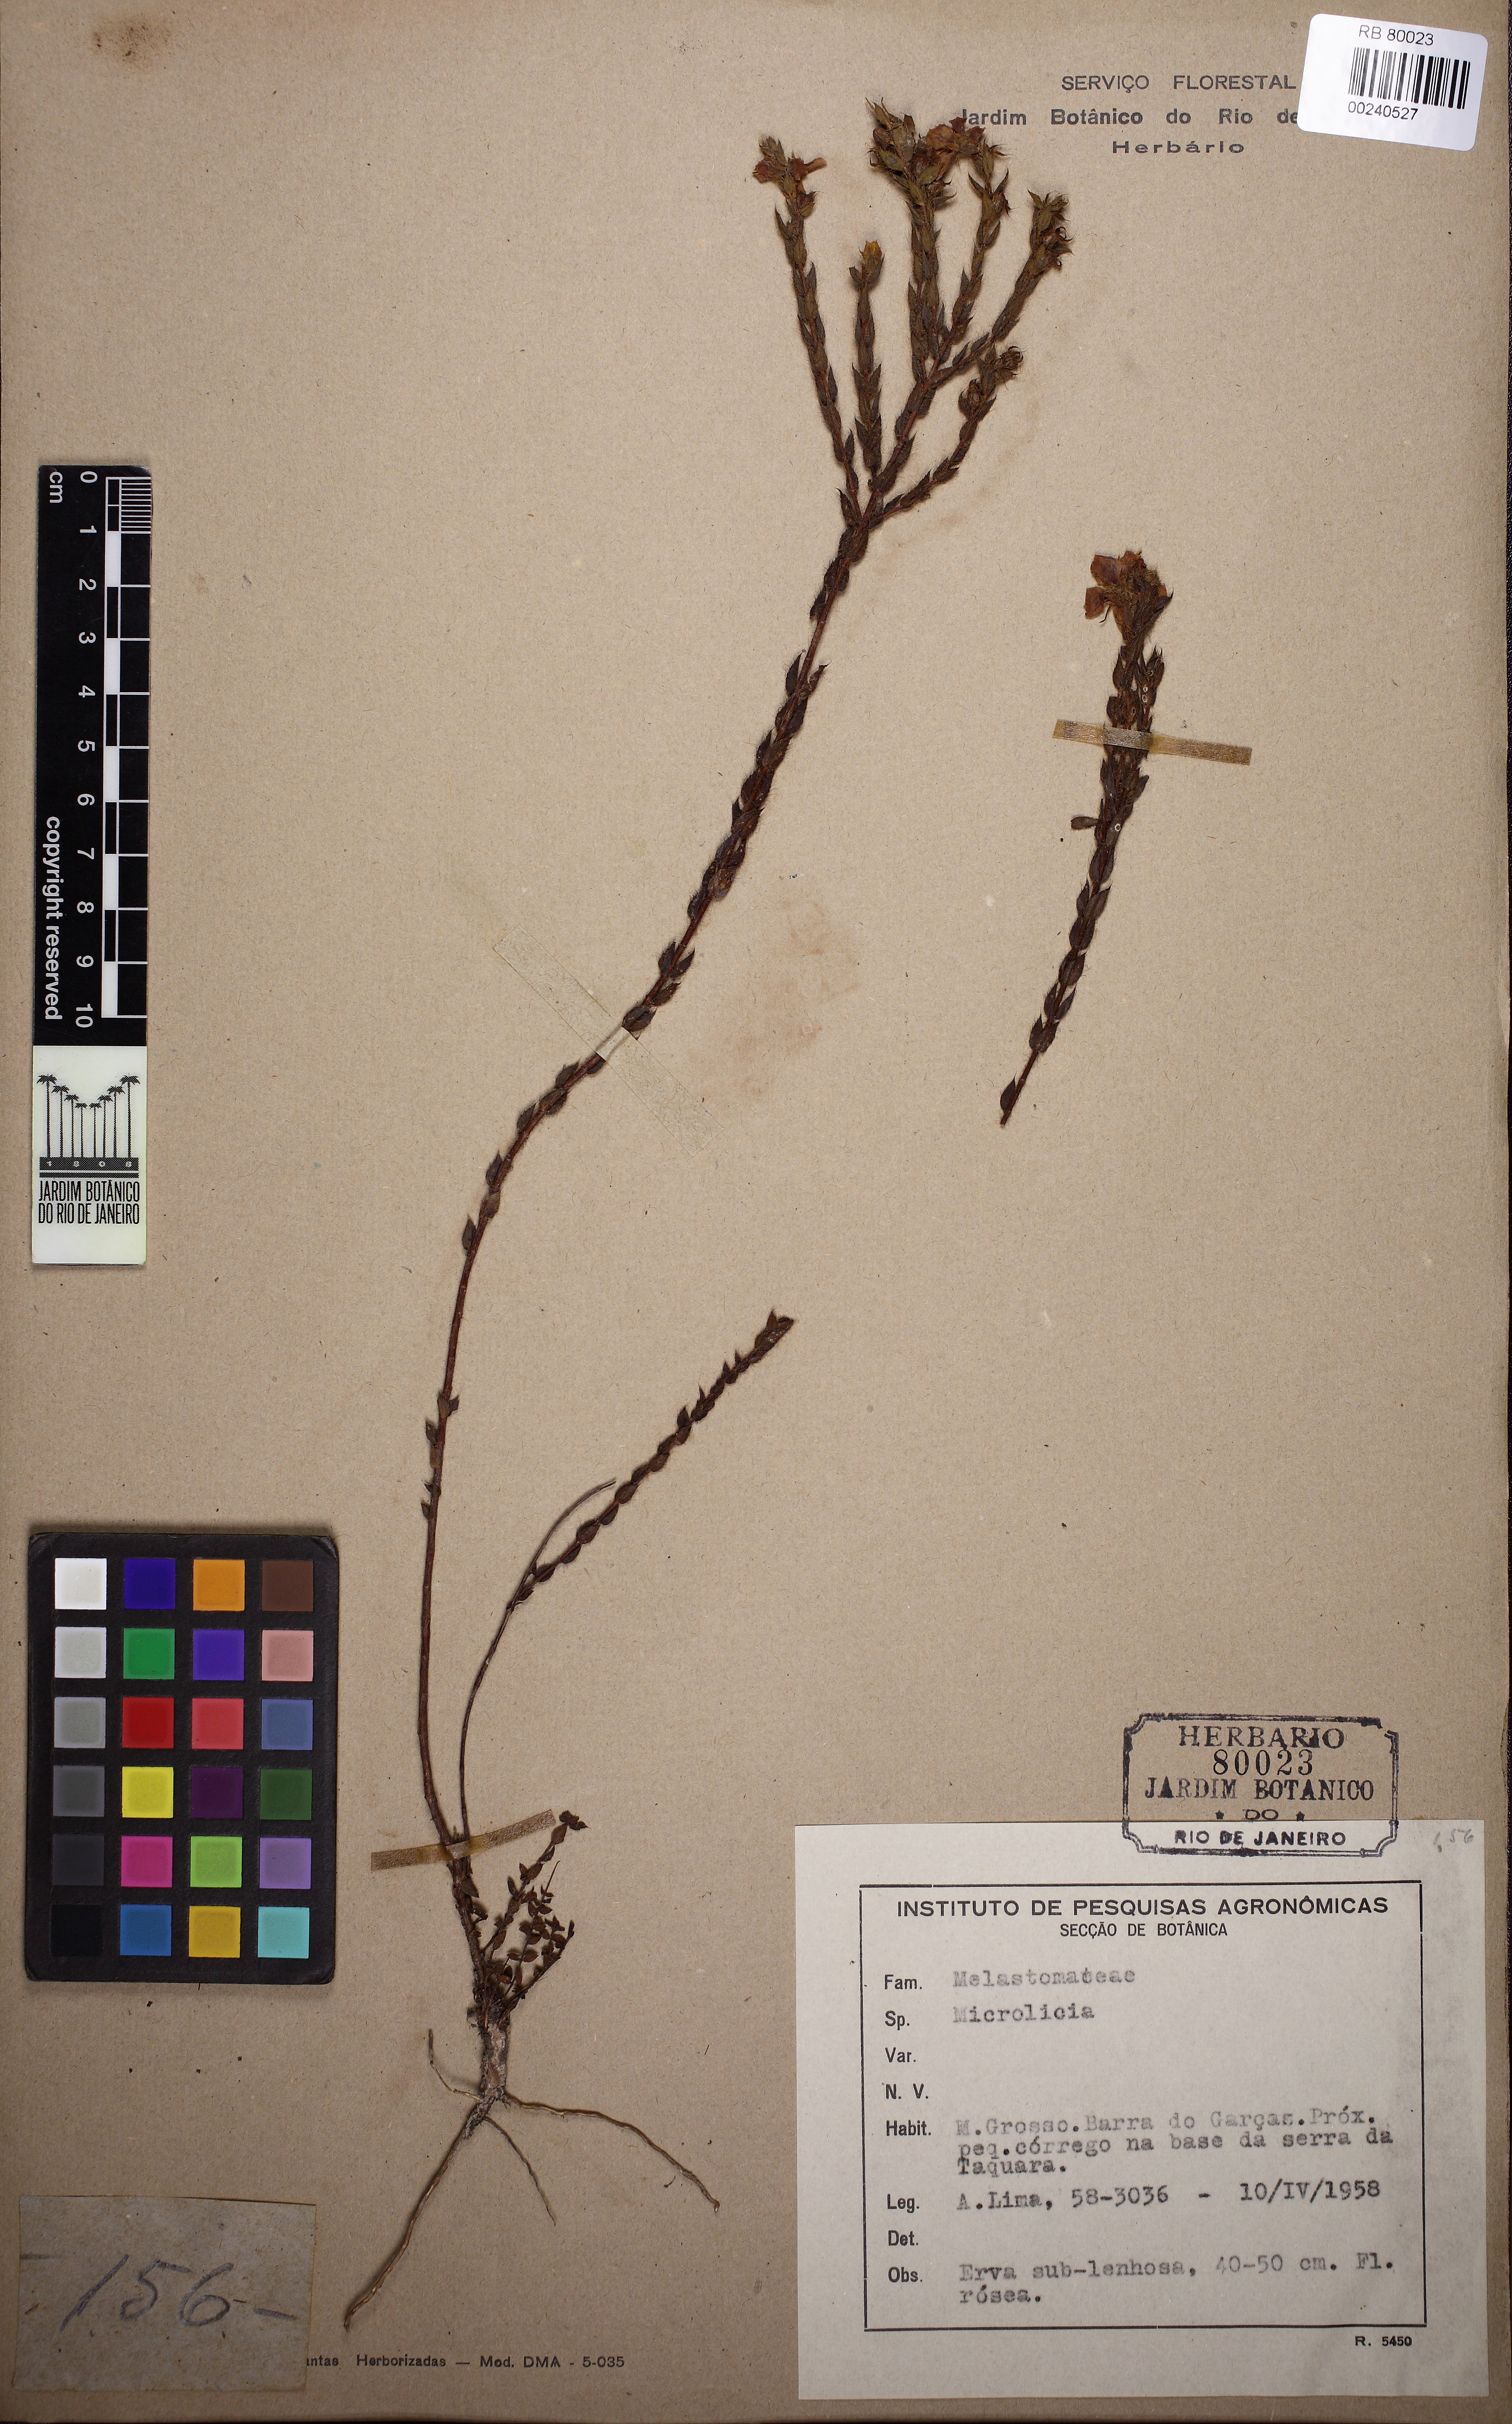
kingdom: Plantae
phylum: Tracheophyta
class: Magnoliopsida
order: Myrtales
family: Melastomataceae
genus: Microlicia
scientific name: Microlicia insignis
